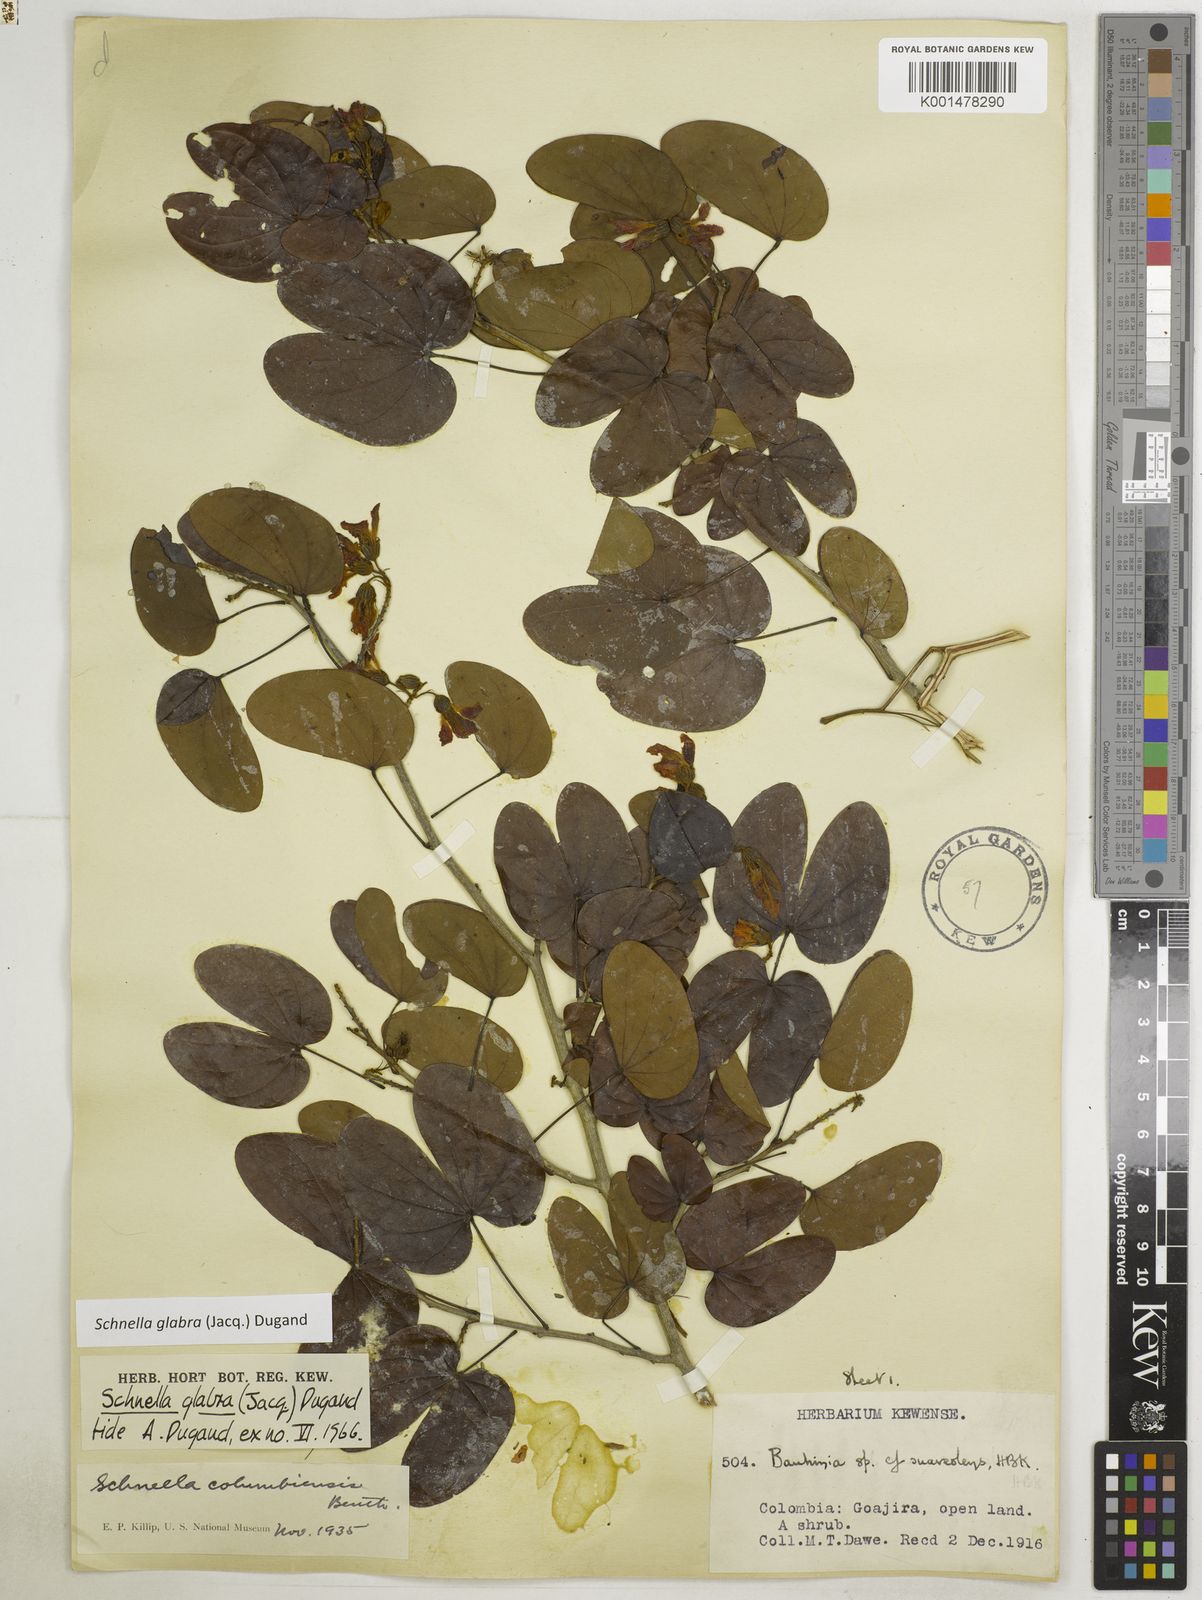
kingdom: Plantae
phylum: Tracheophyta
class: Magnoliopsida
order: Fabales
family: Fabaceae
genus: Schnella
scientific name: Schnella glabra
